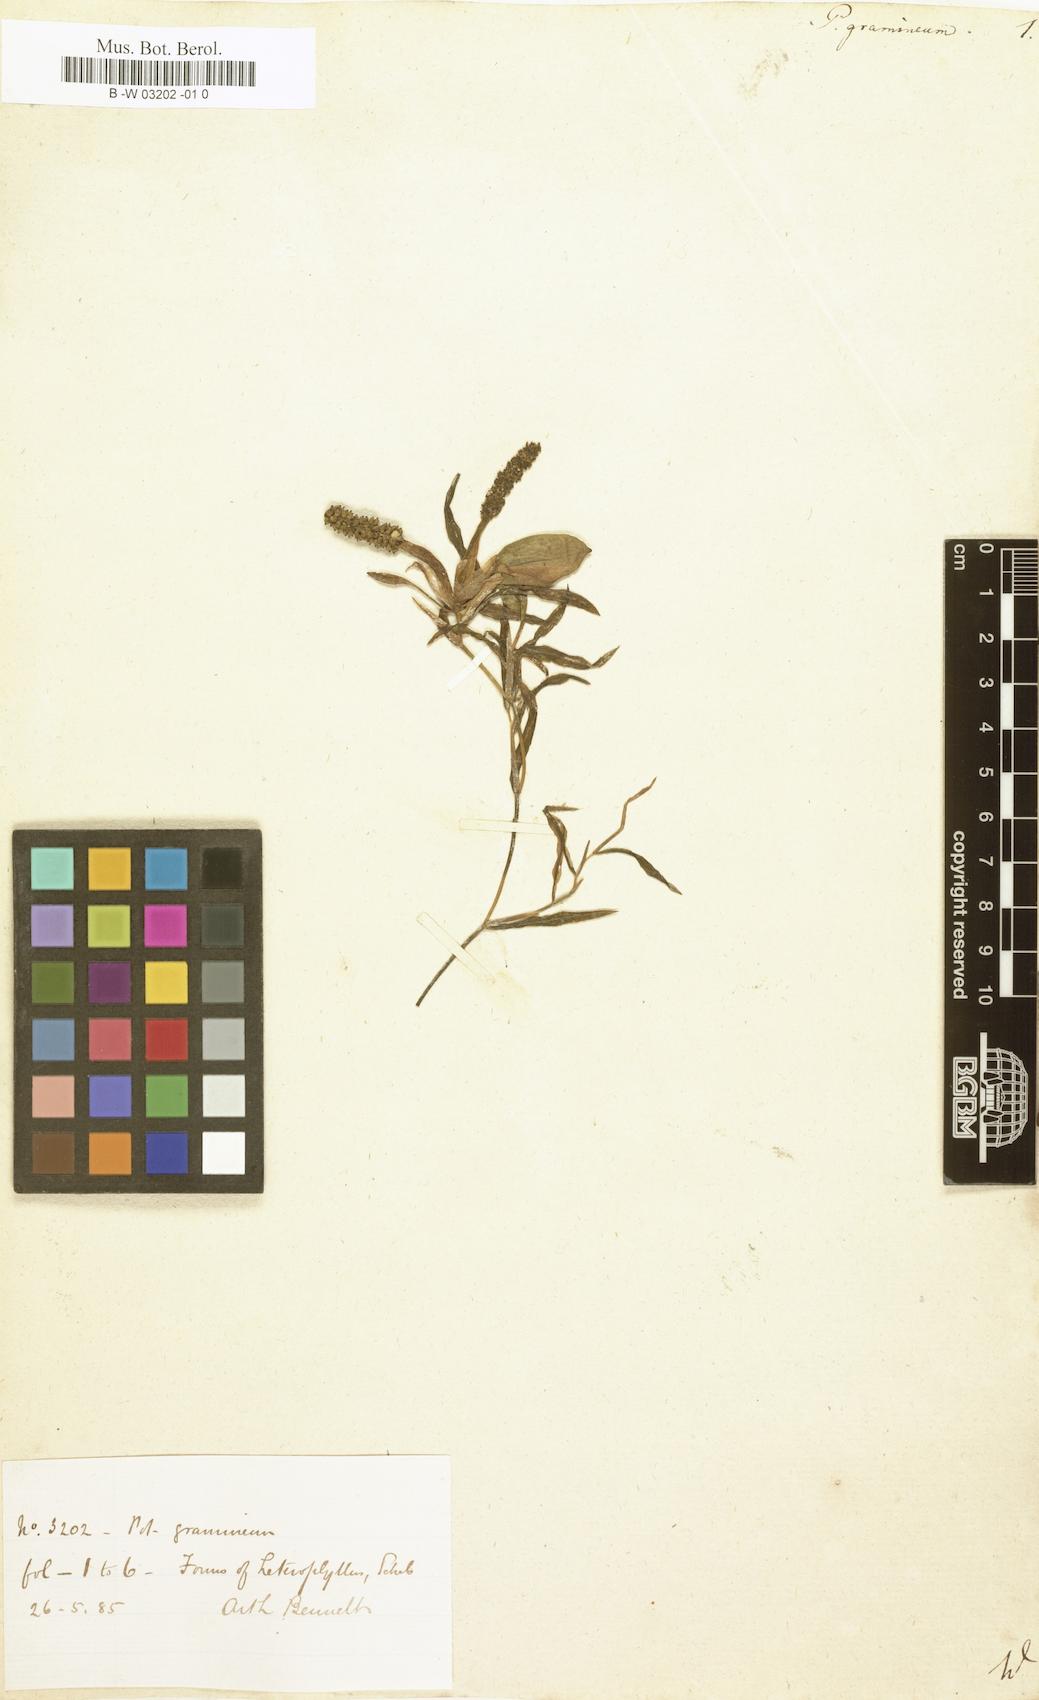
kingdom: Plantae
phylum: Tracheophyta
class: Liliopsida
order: Alismatales
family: Potamogetonaceae
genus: Potamogeton
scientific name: Potamogeton gramineus
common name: Various-leaved pondweed
